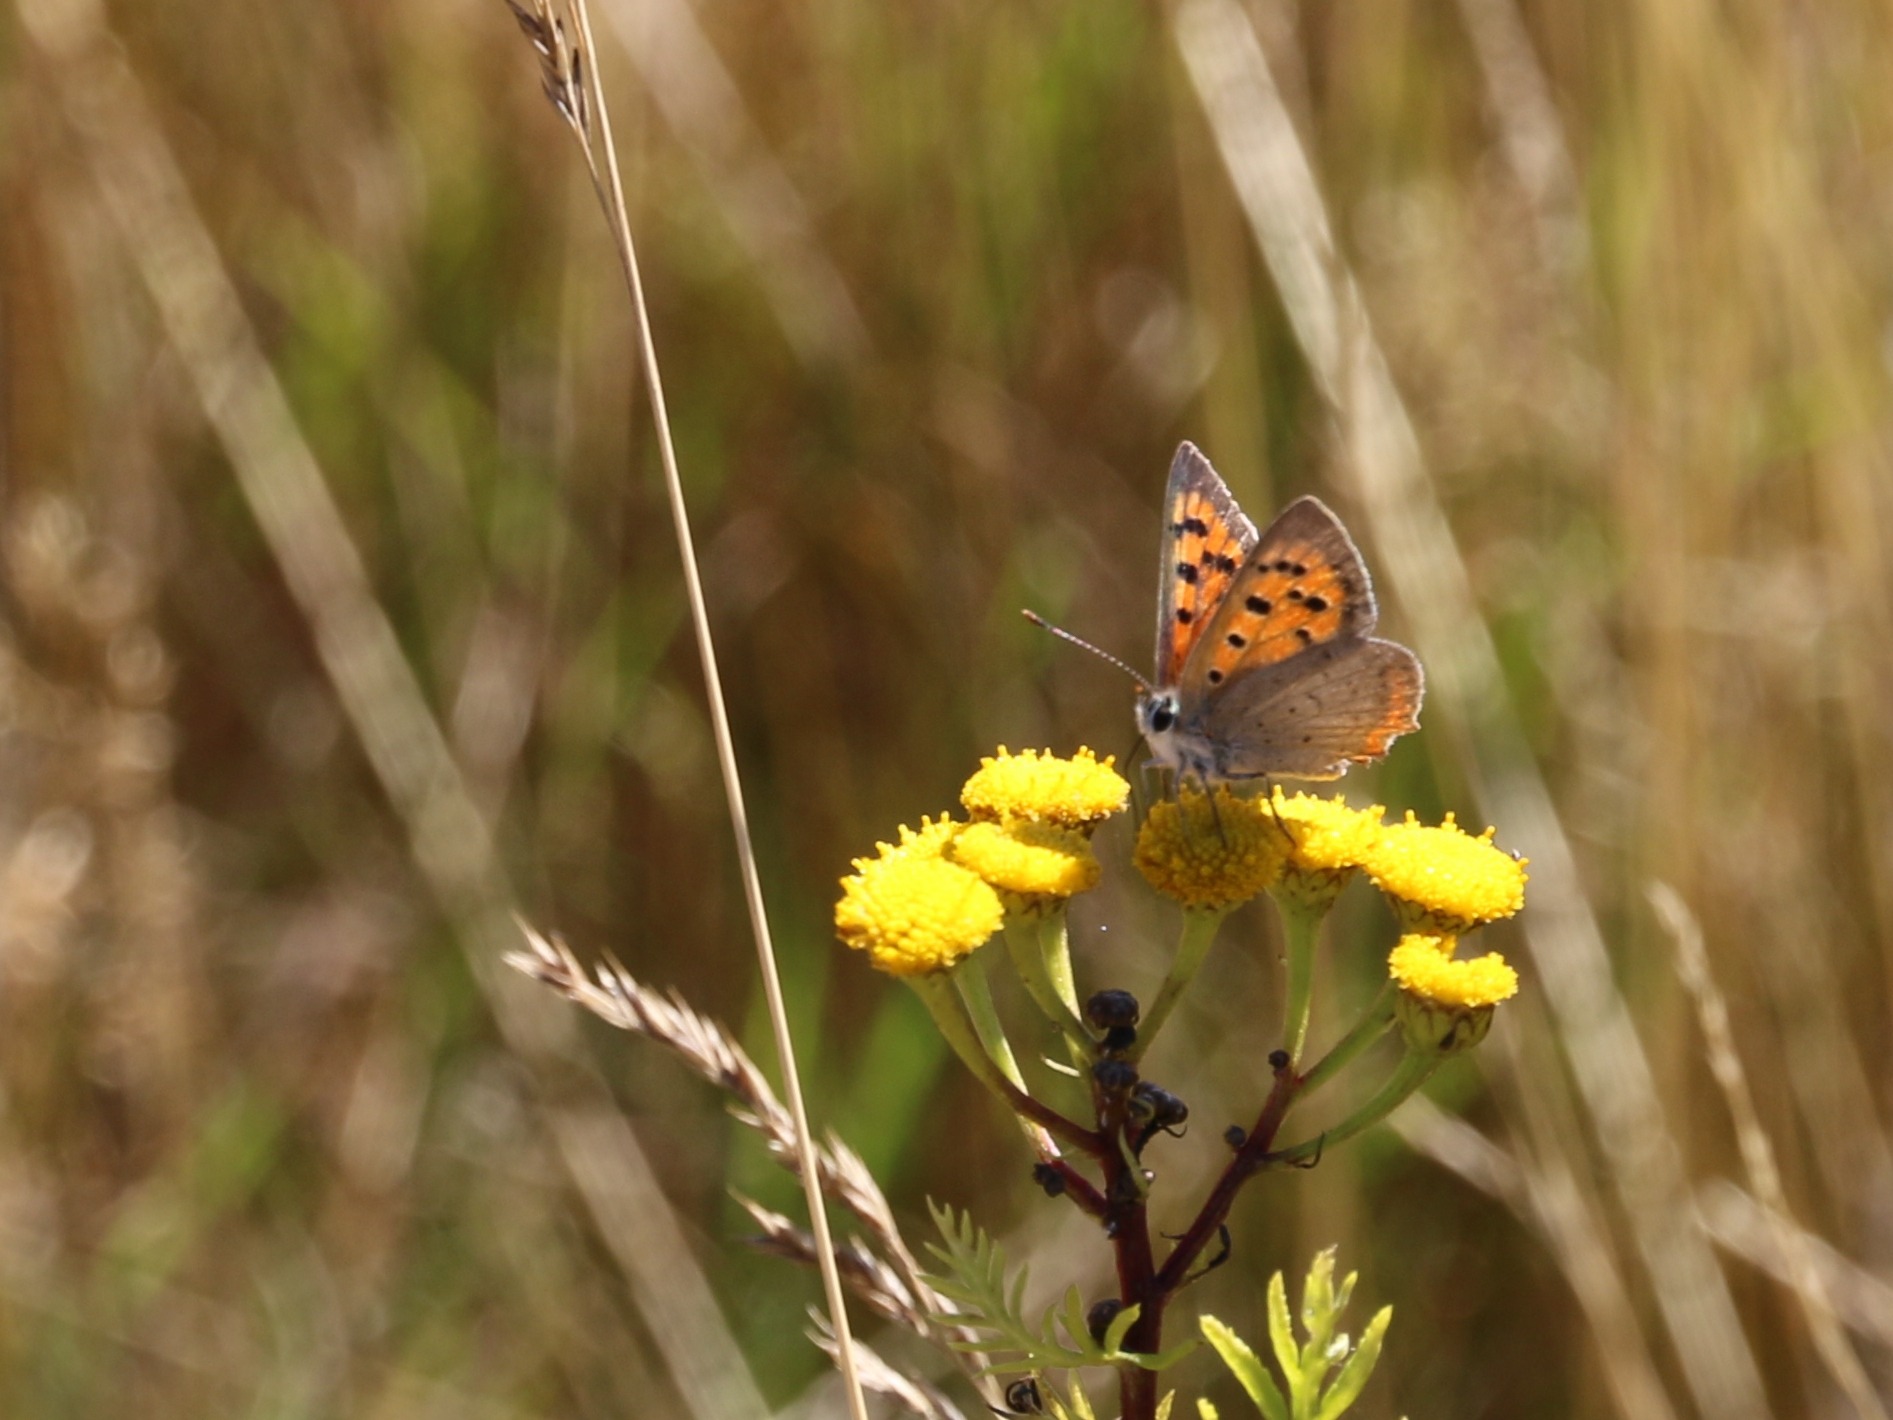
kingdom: Animalia
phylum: Arthropoda
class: Insecta
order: Lepidoptera
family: Lycaenidae
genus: Lycaena
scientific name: Lycaena phlaeas
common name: Lille ildfugl
